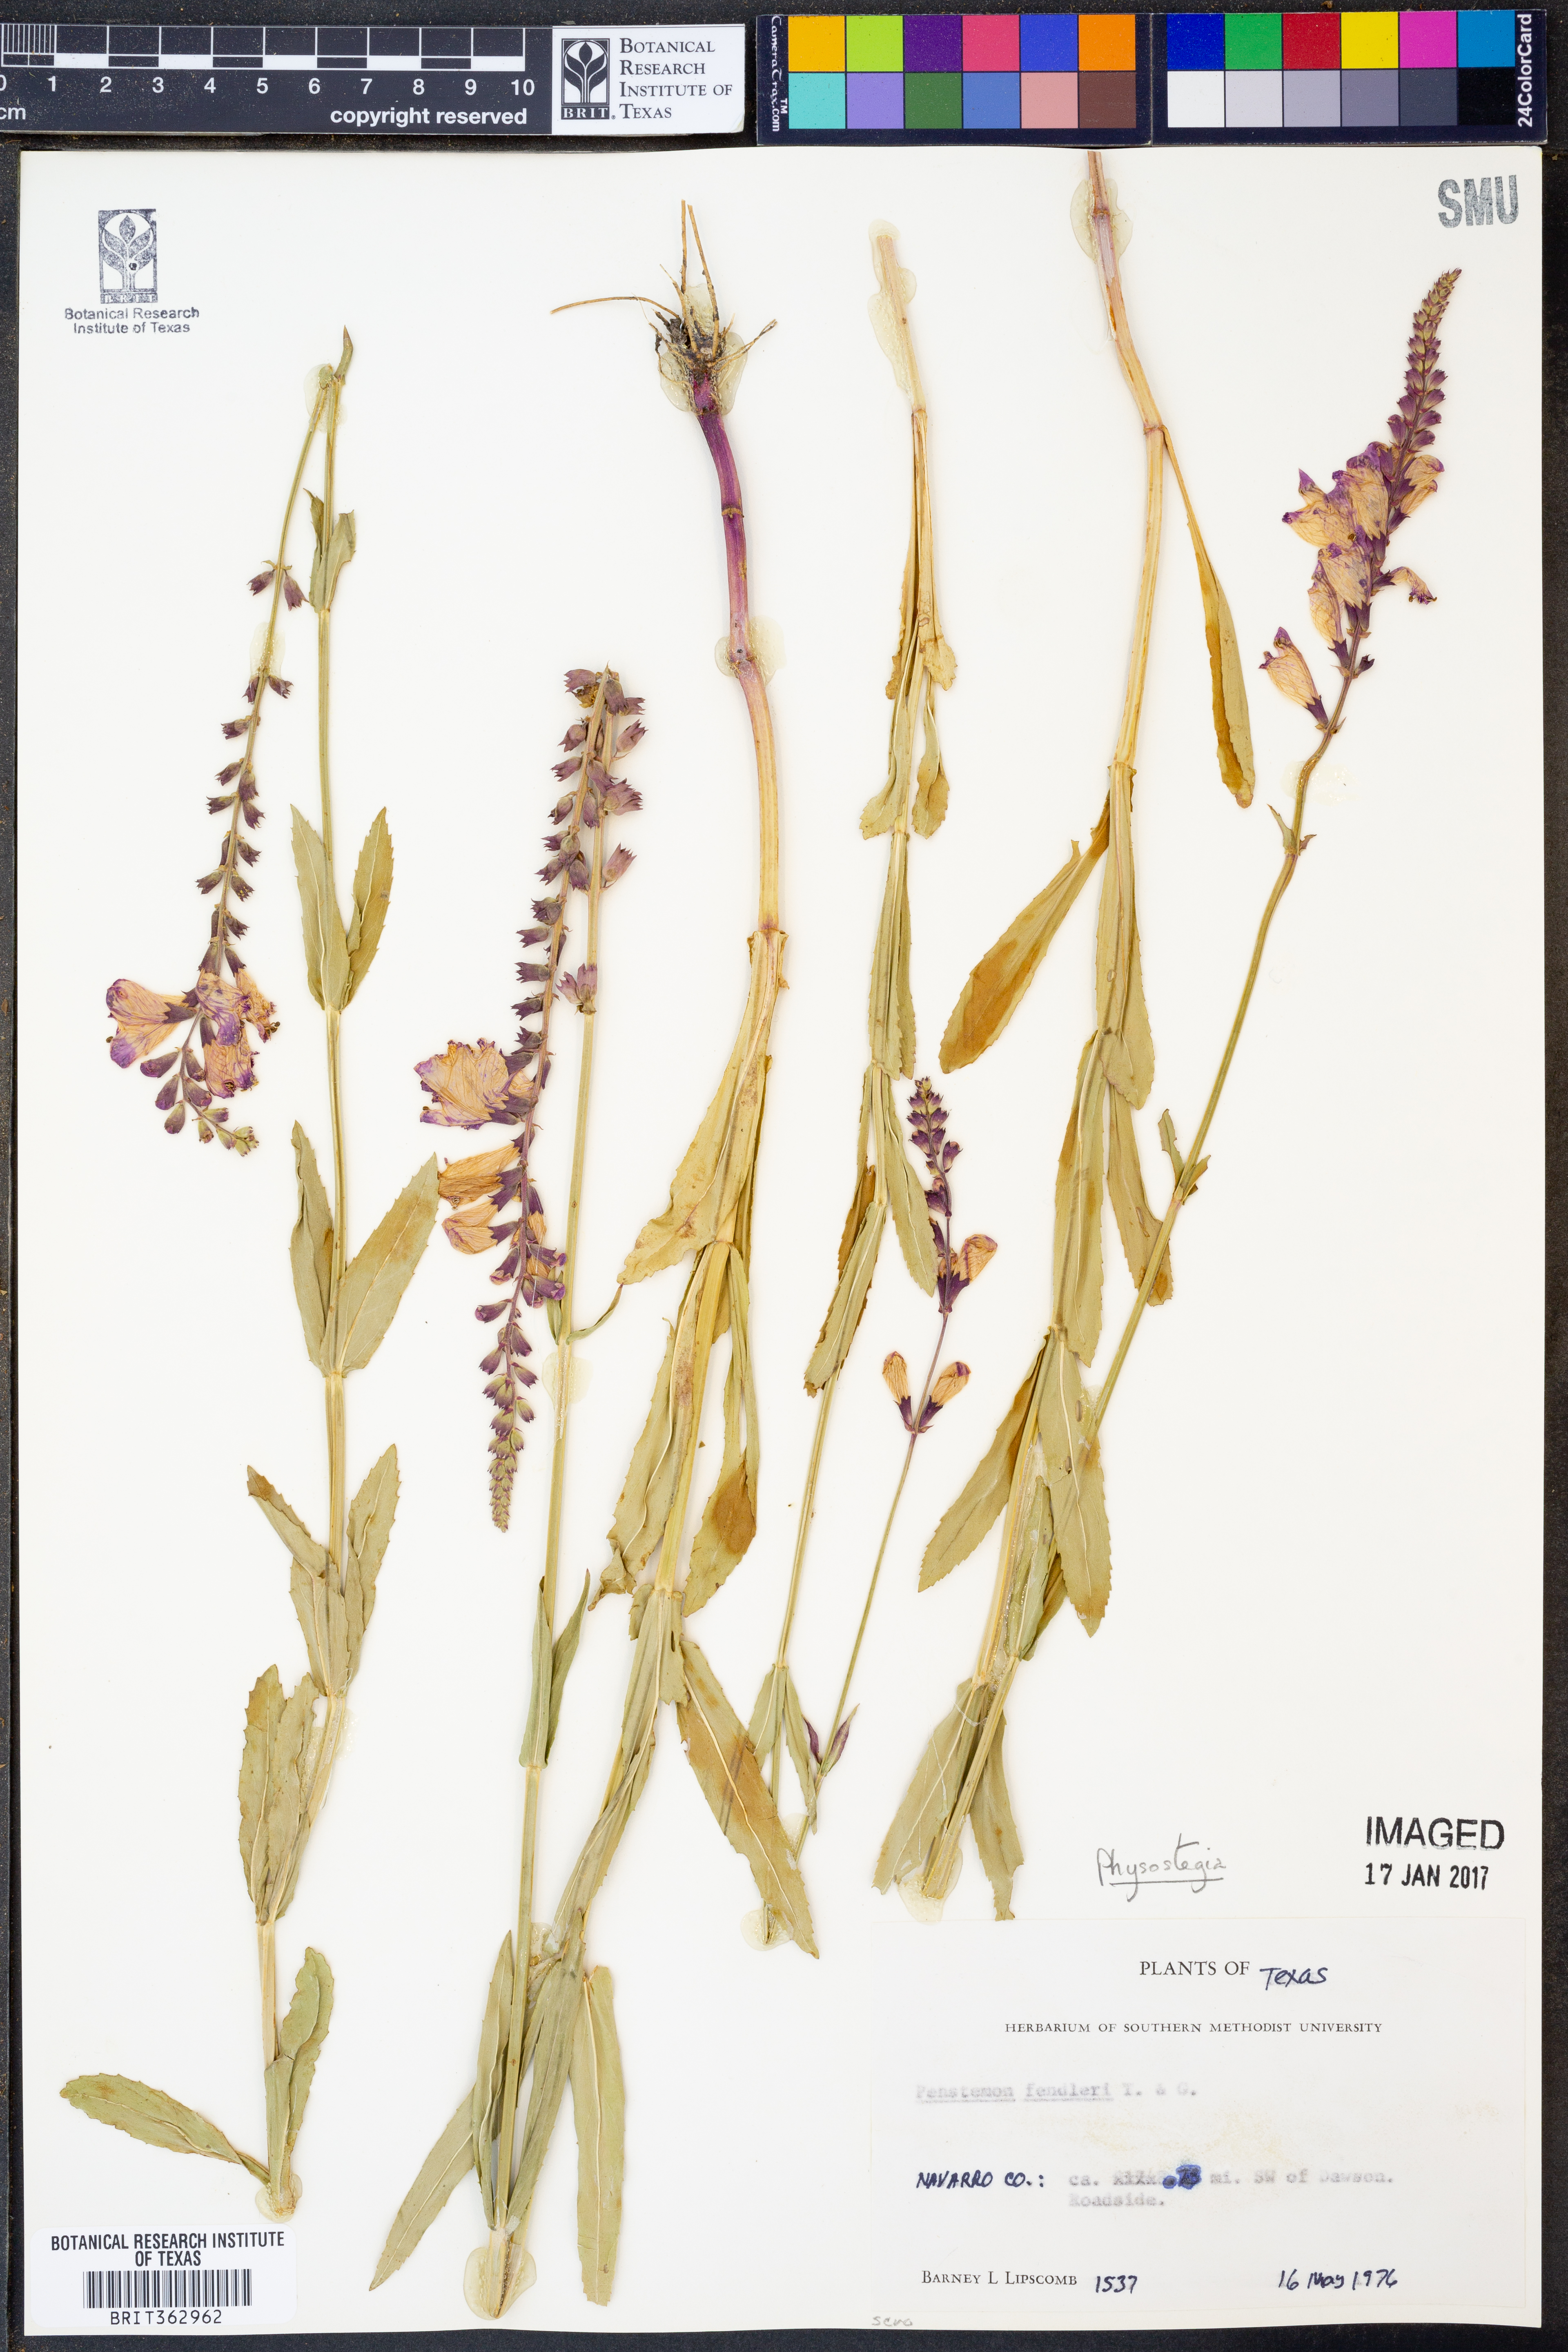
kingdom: Plantae
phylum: Tracheophyta
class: Magnoliopsida
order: Lamiales
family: Plantaginaceae
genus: Penstemon
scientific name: Penstemon fendleri
